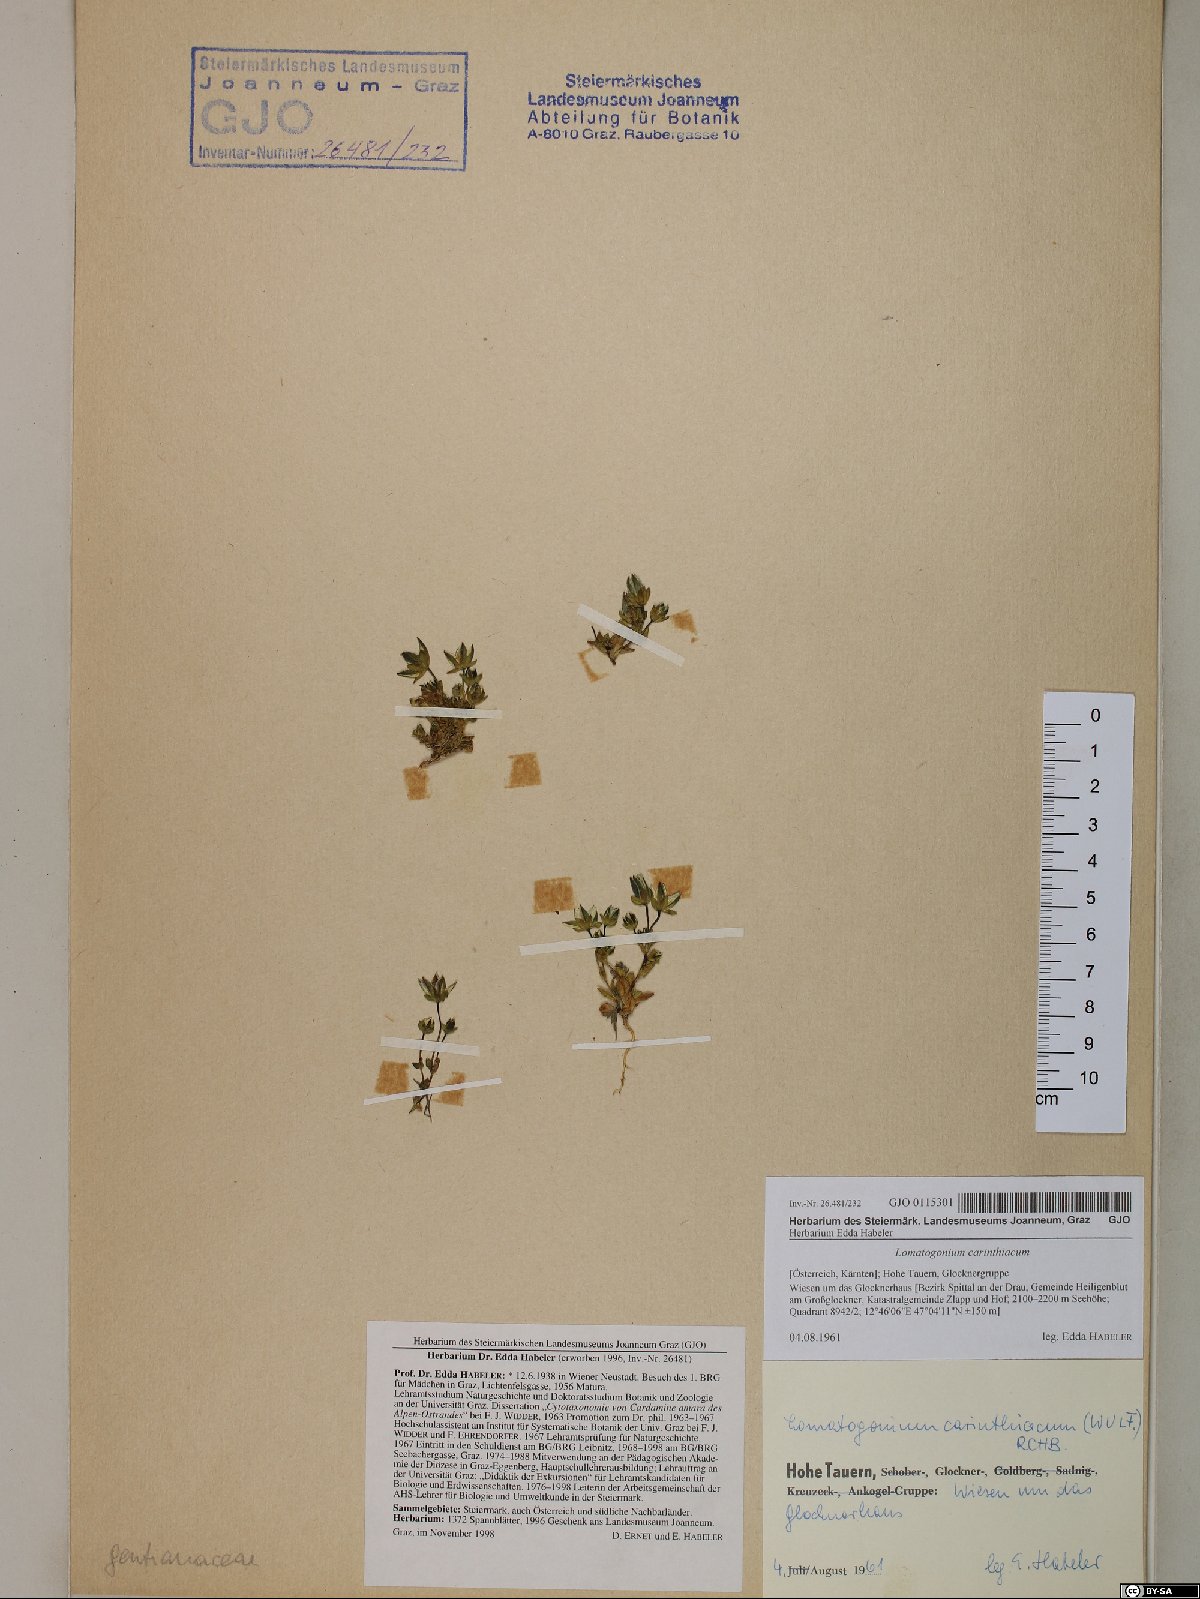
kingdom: Plantae
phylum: Tracheophyta
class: Magnoliopsida
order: Gentianales
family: Gentianaceae
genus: Lomatogonium
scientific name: Lomatogonium carinthiacum
